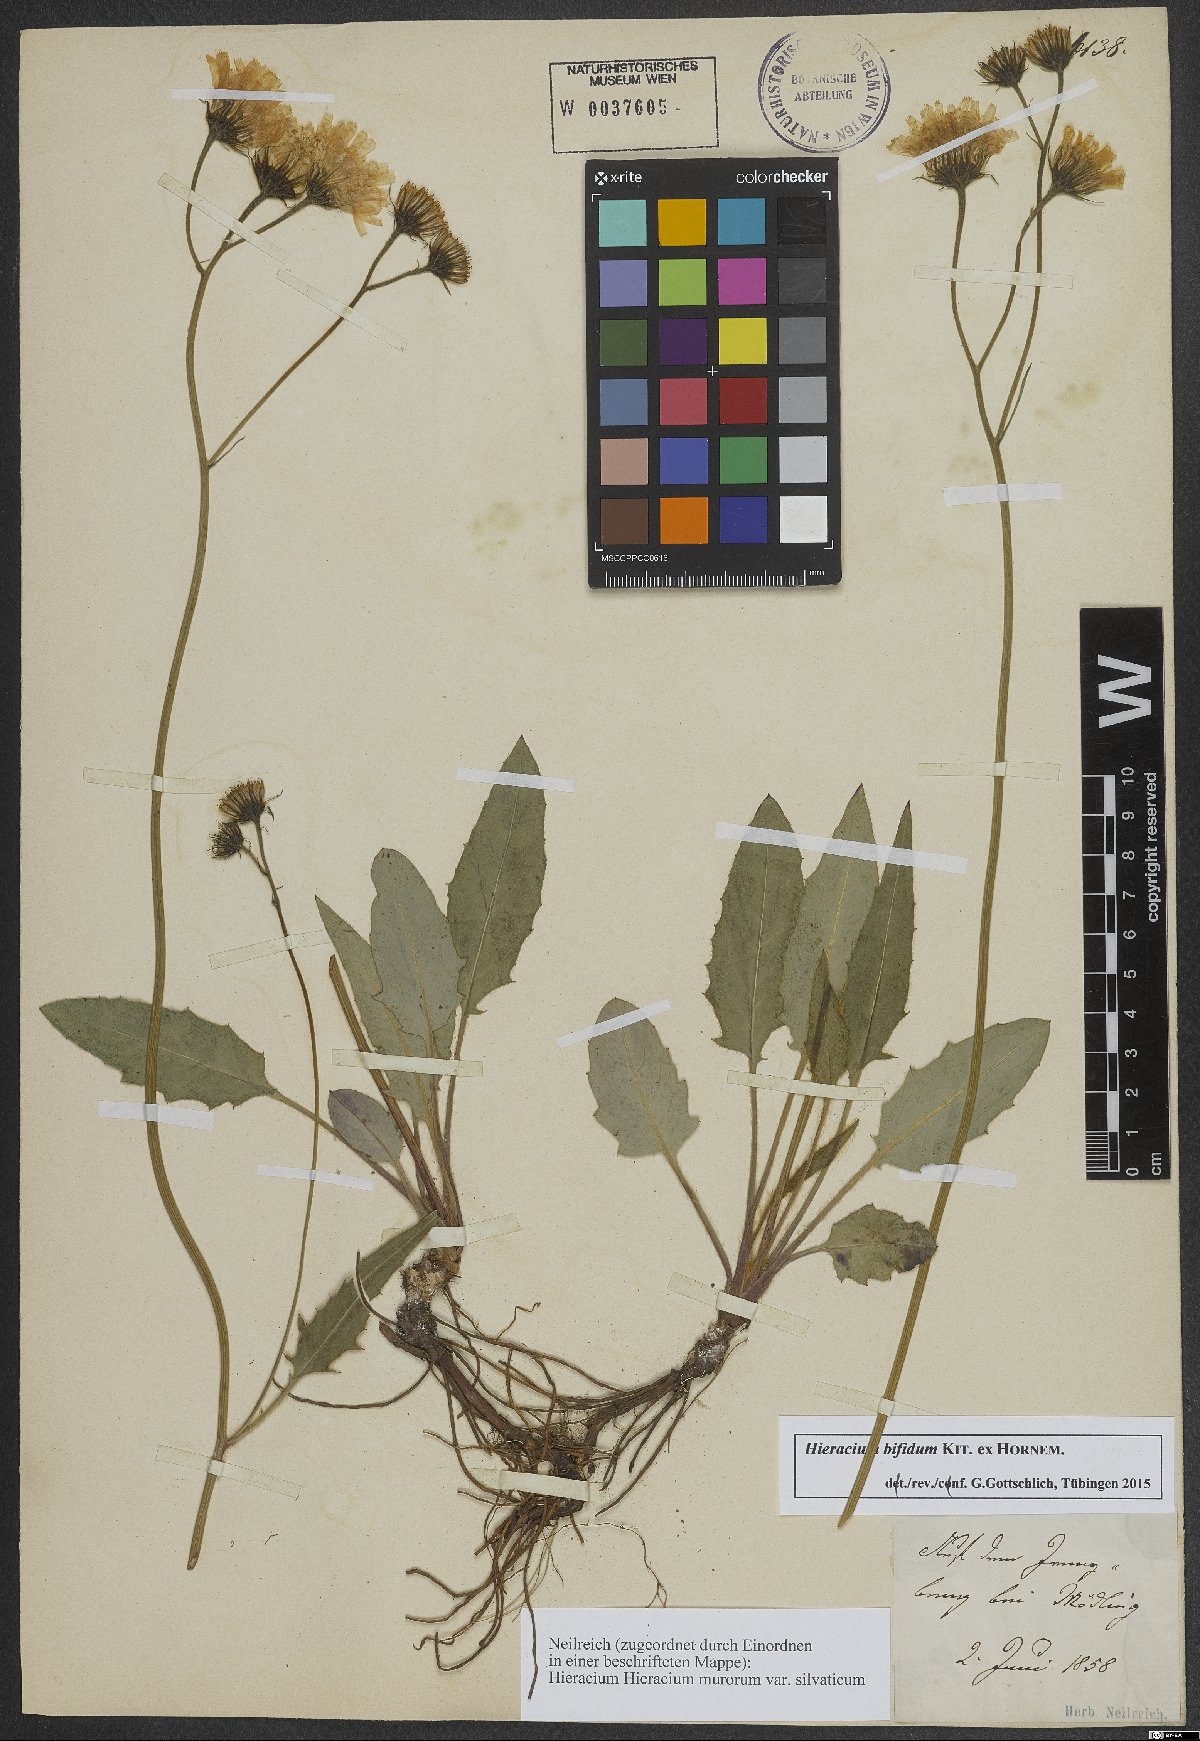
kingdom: Plantae
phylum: Tracheophyta
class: Magnoliopsida
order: Asterales
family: Asteraceae
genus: Hieracium
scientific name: Hieracium bifidum
